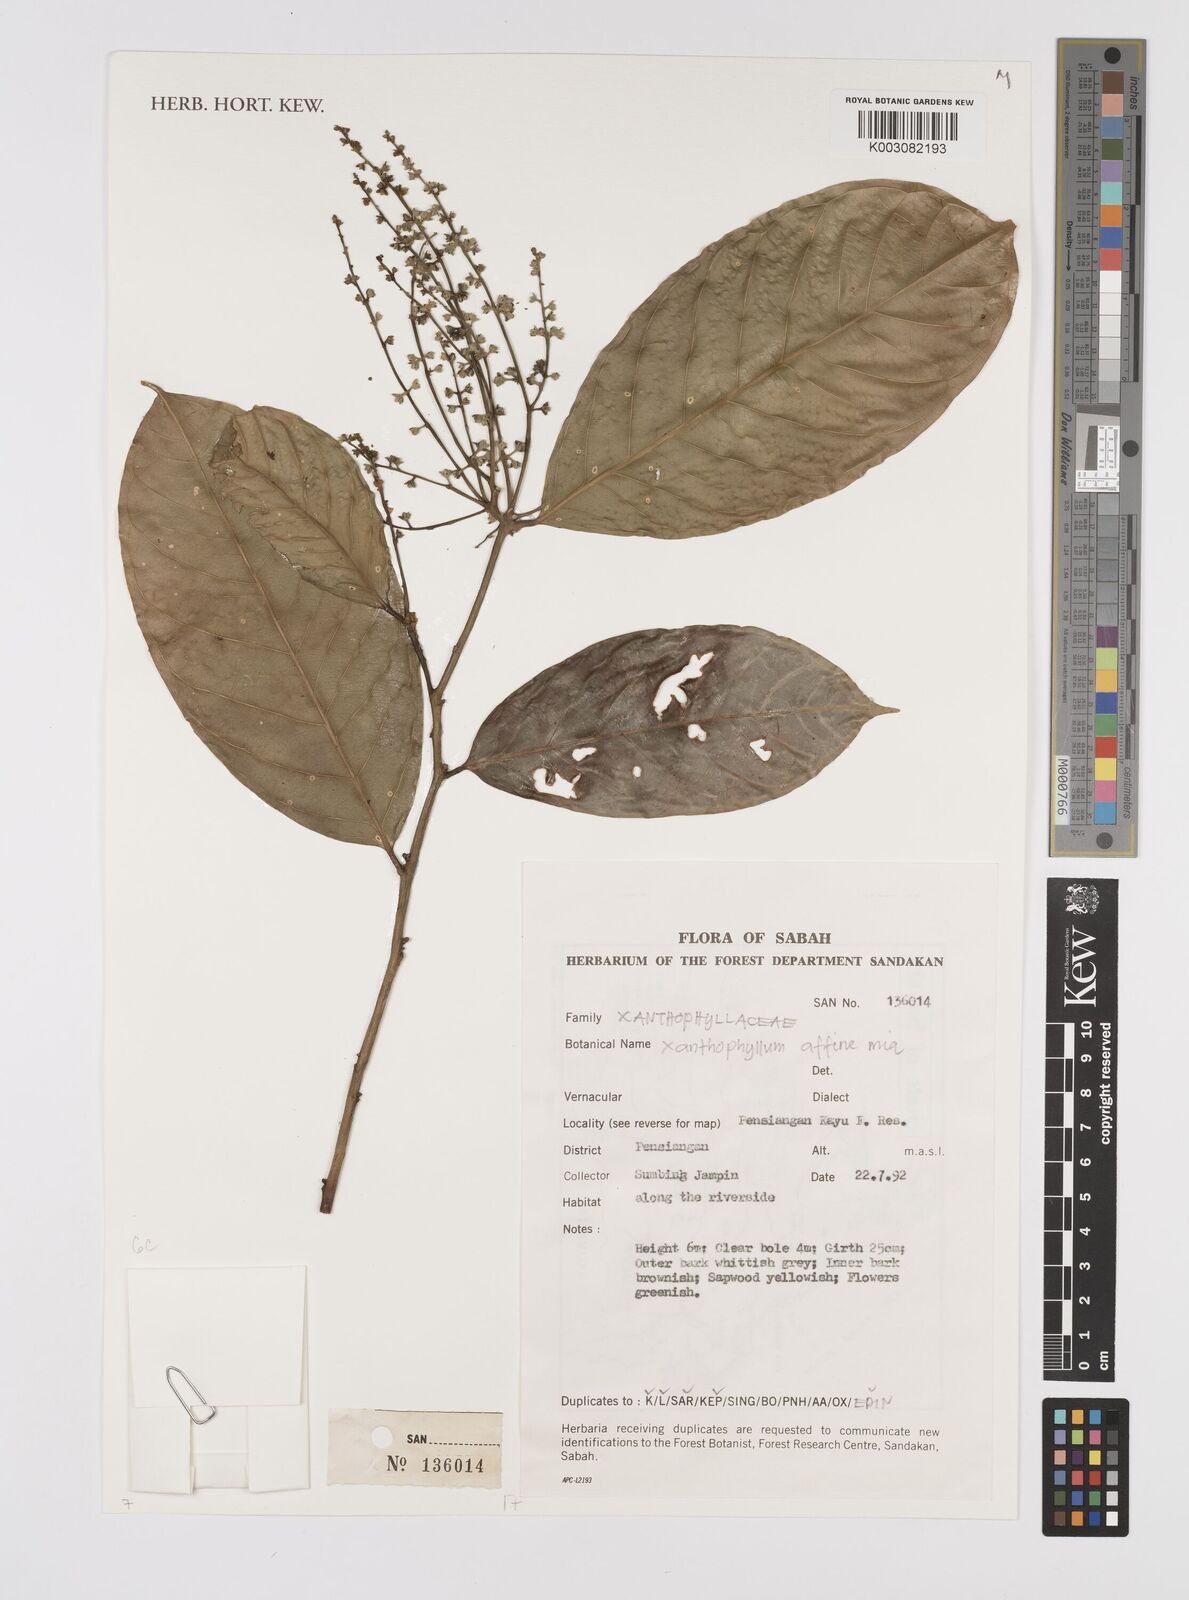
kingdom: Plantae
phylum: Tracheophyta
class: Magnoliopsida
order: Fabales
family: Polygalaceae
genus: Xanthophyllum
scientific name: Xanthophyllum flavescens
